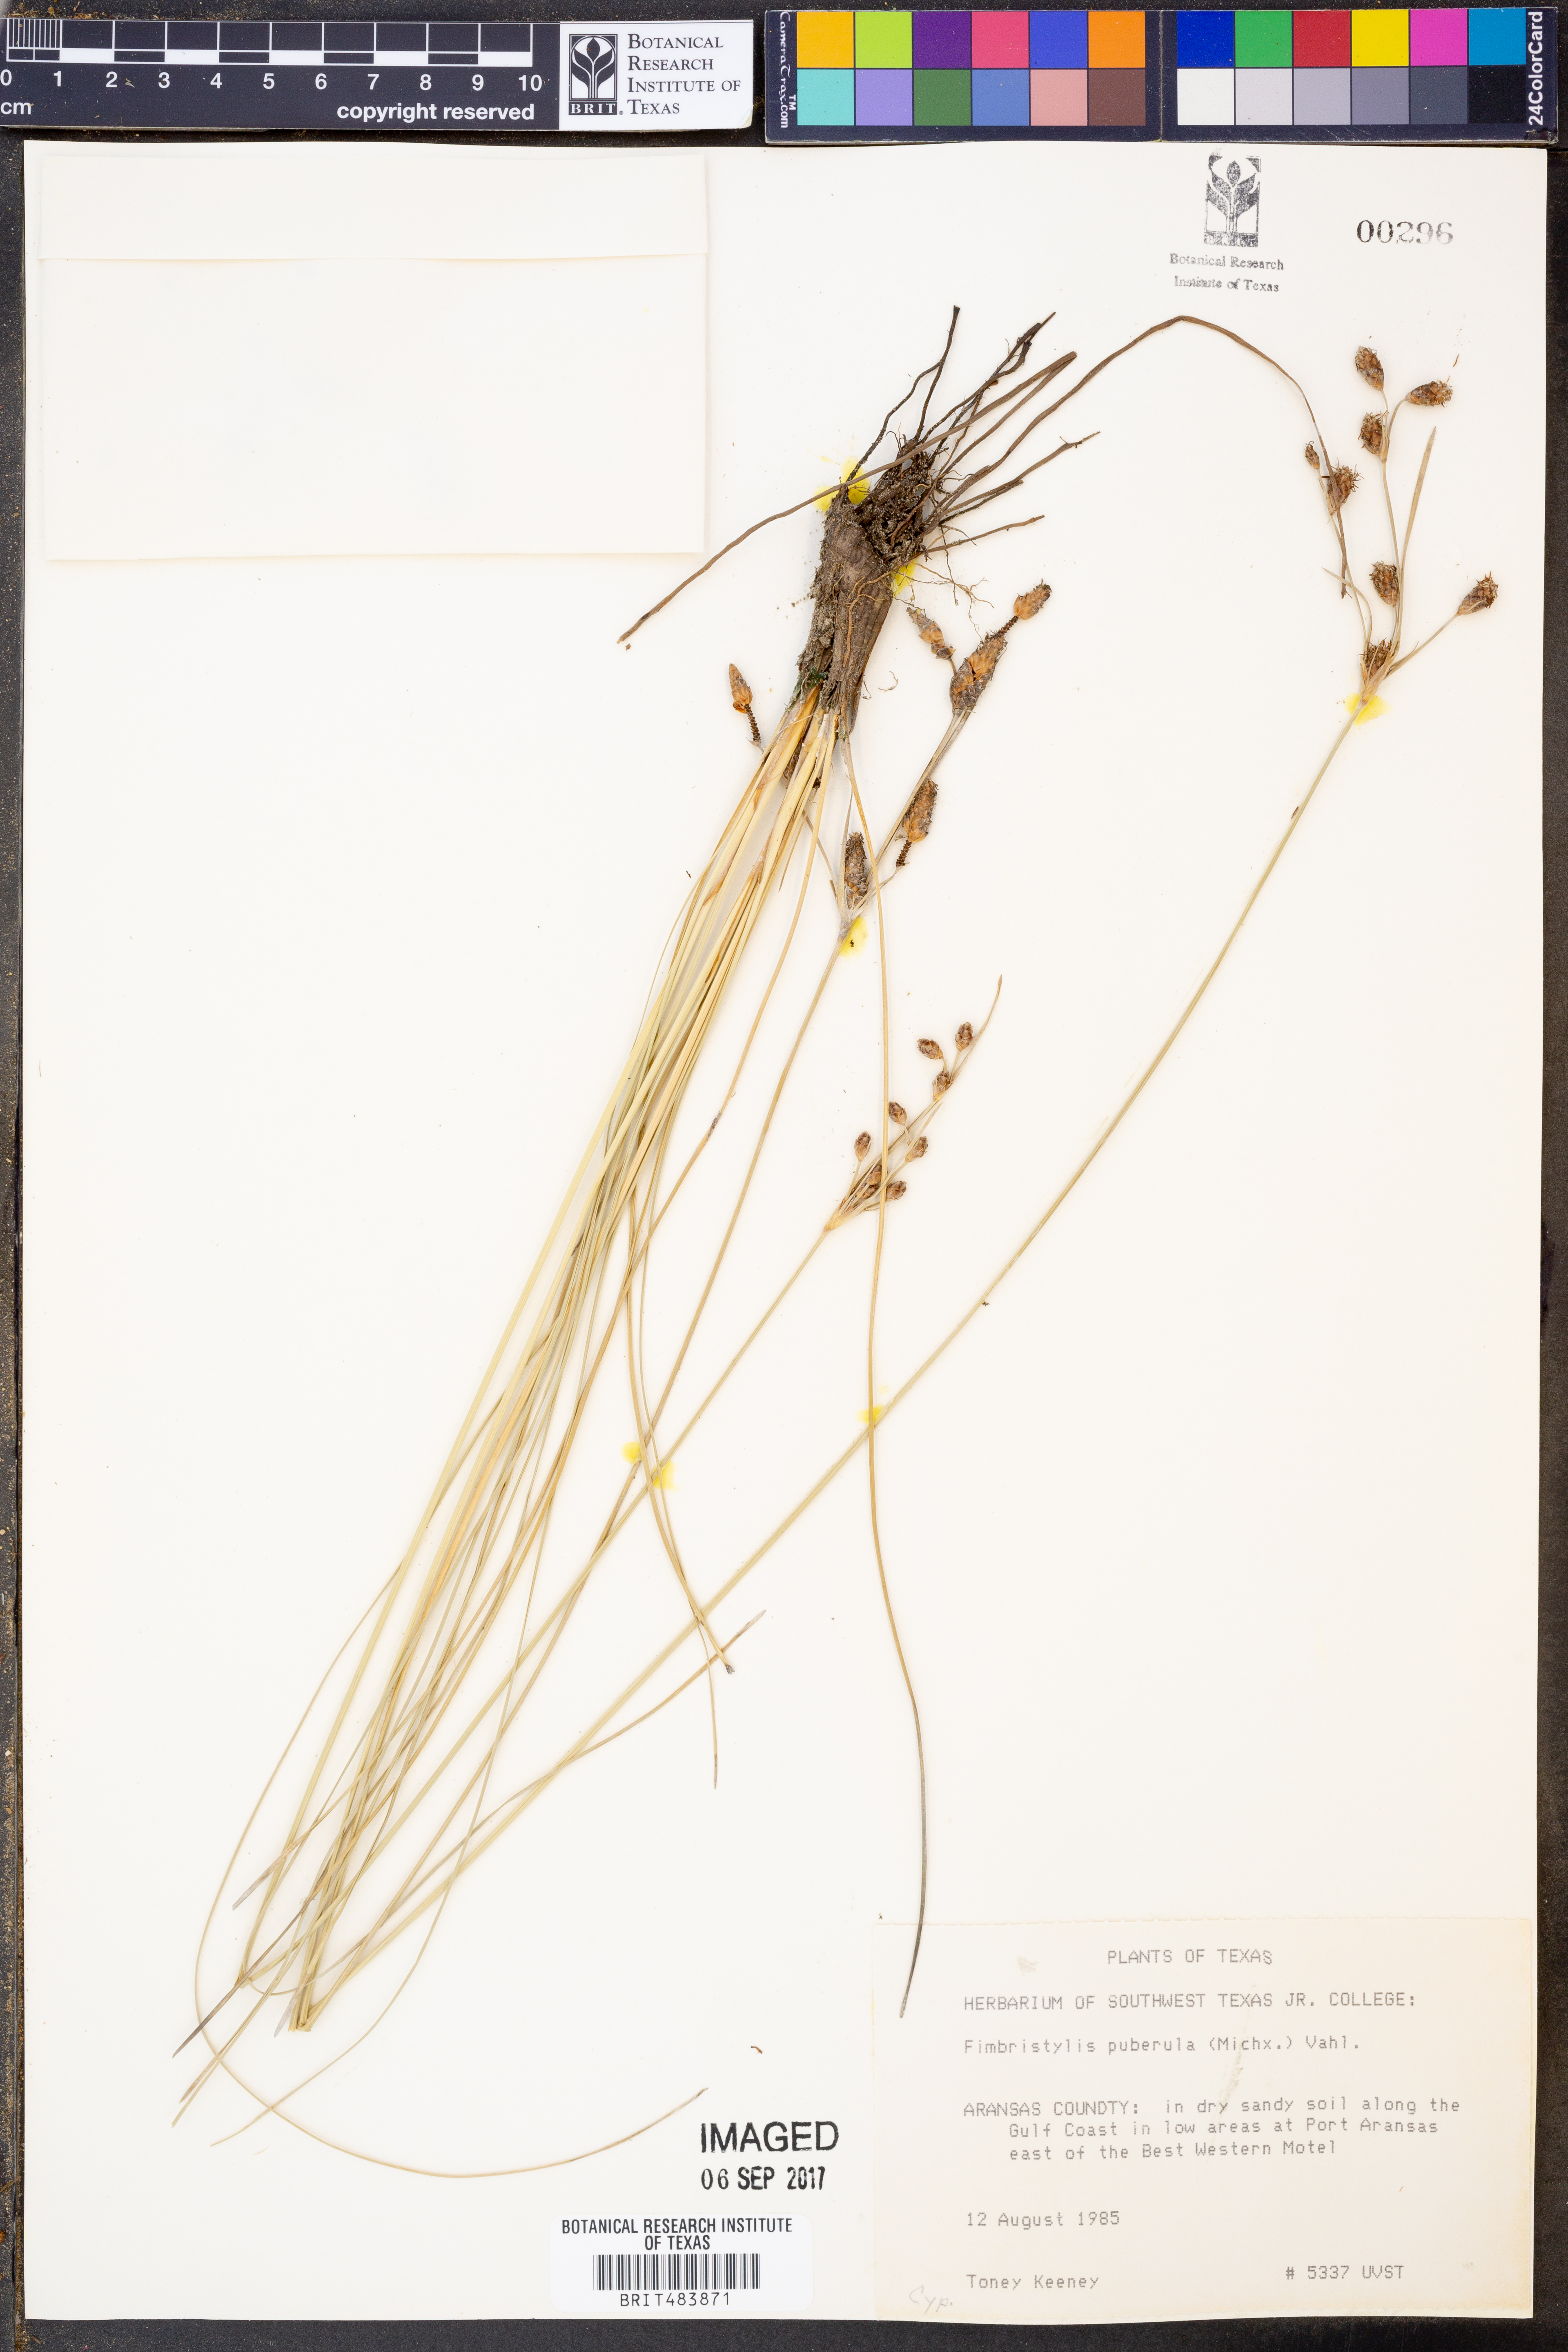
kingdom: Plantae
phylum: Tracheophyta
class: Liliopsida
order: Poales
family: Cyperaceae
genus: Fimbristylis
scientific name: Fimbristylis puberula
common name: Hairy fimbristylis
